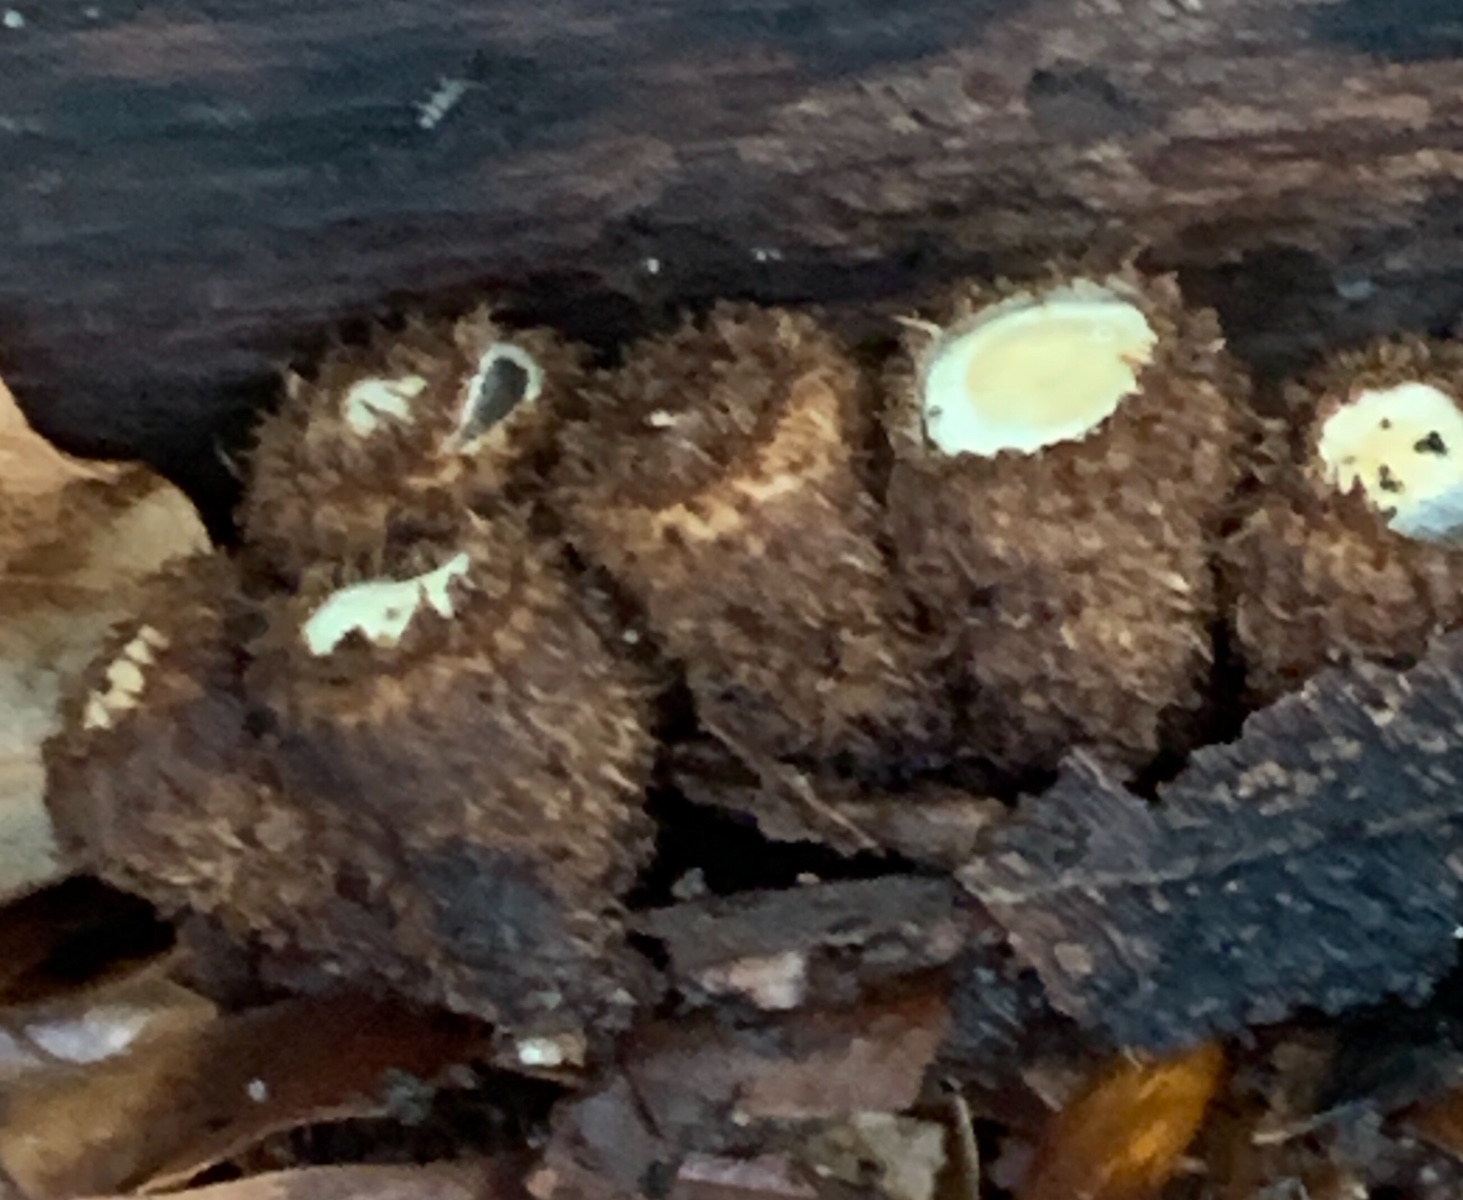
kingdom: Fungi
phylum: Basidiomycota
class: Agaricomycetes
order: Agaricales
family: Agaricaceae
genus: Cyathus
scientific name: Cyathus striatus
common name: stribet redesvamp
